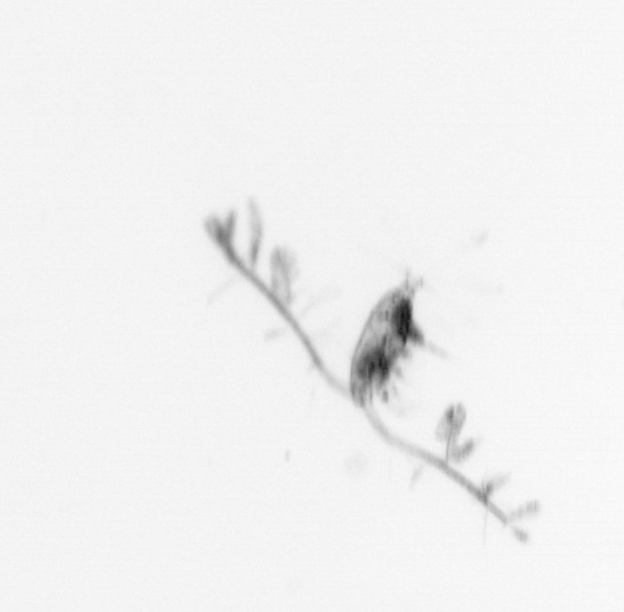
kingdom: Animalia
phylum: Arthropoda
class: Copepoda
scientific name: Copepoda
